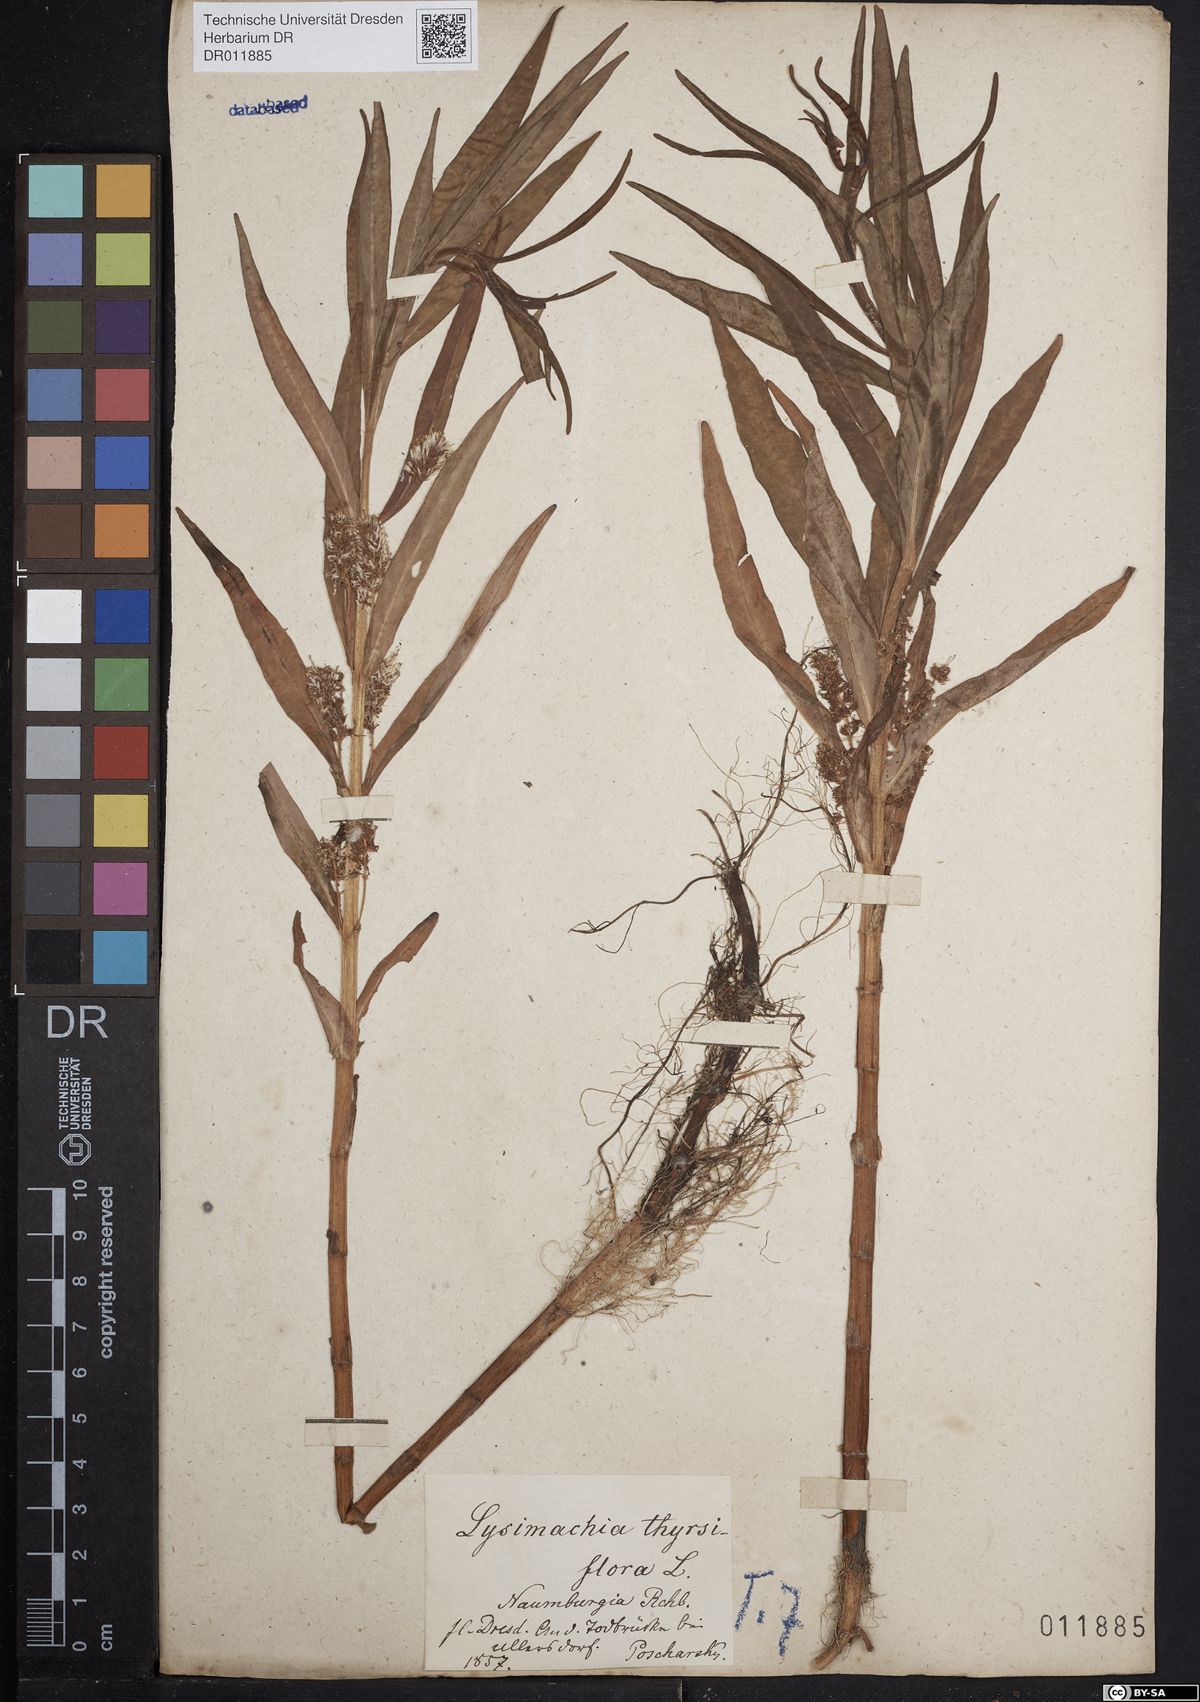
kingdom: Plantae
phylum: Tracheophyta
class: Magnoliopsida
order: Ericales
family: Primulaceae
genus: Lysimachia
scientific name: Lysimachia thyrsiflora
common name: Tufted loosestrife
